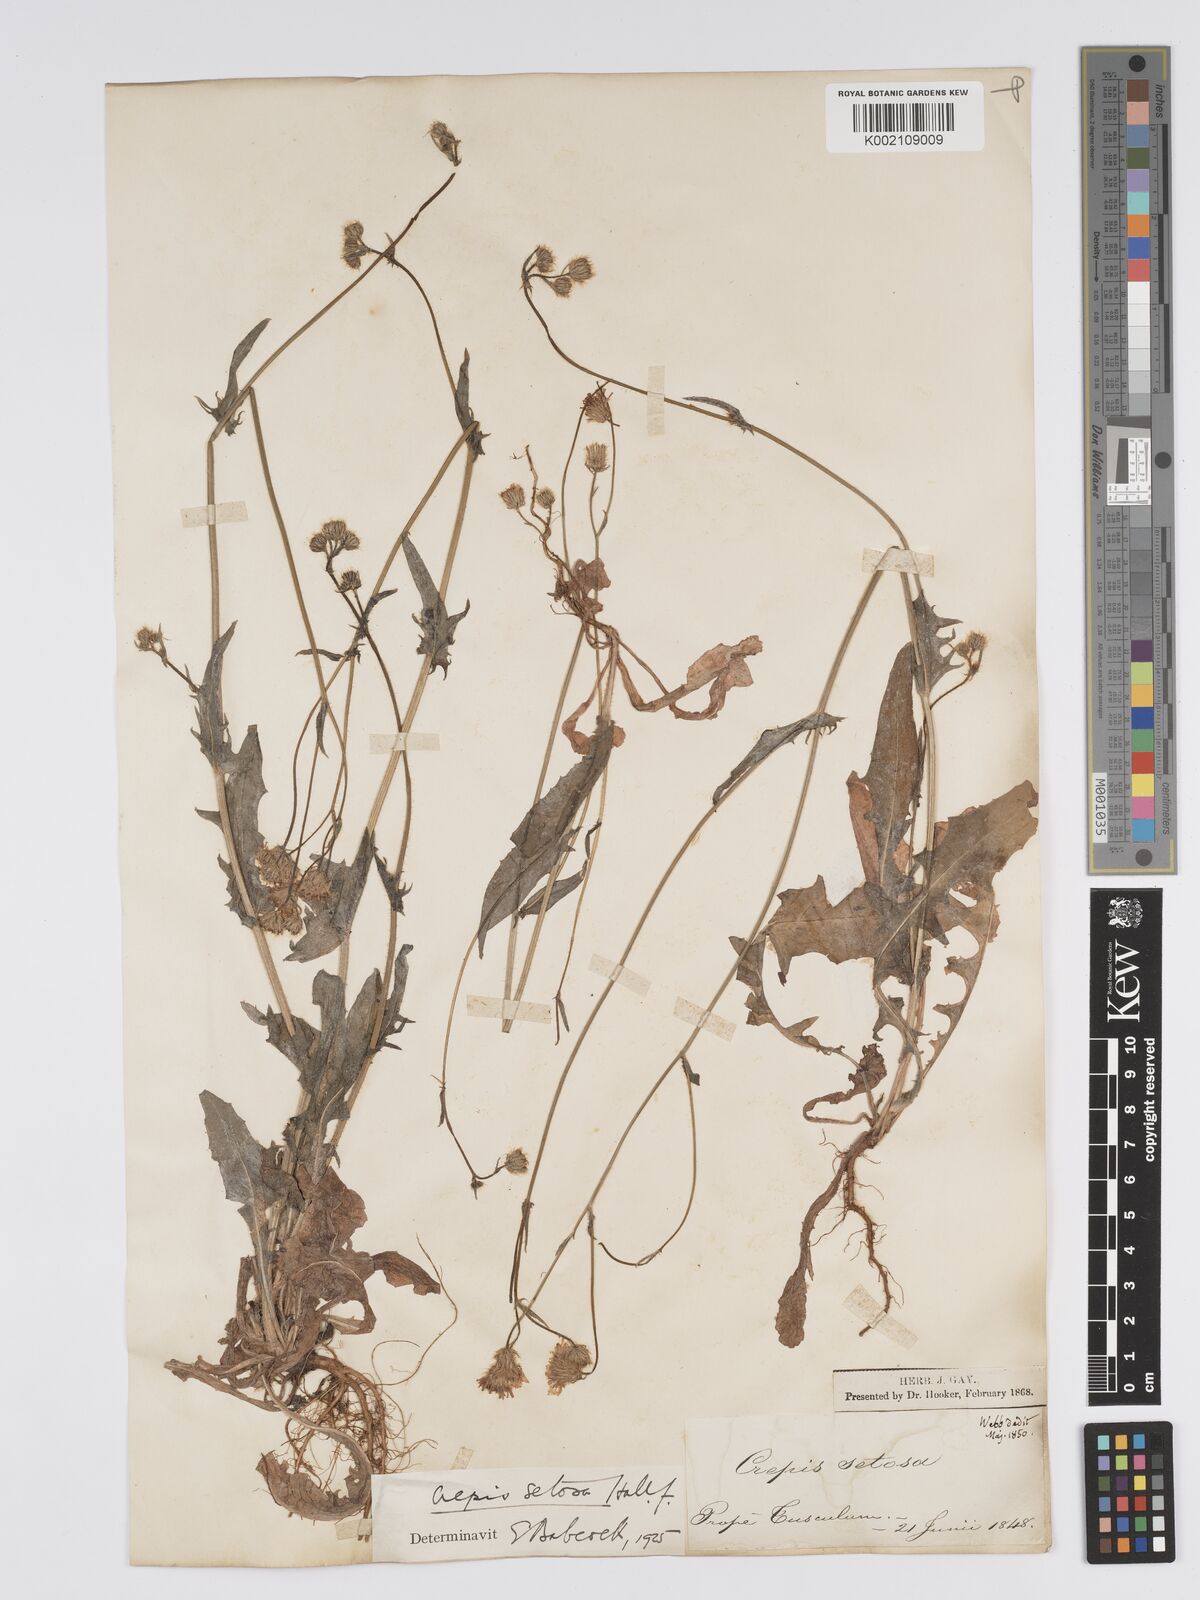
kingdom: Plantae
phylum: Tracheophyta
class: Magnoliopsida
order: Asterales
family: Asteraceae
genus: Crepis
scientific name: Crepis setosa
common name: Bristly hawk's-beard
